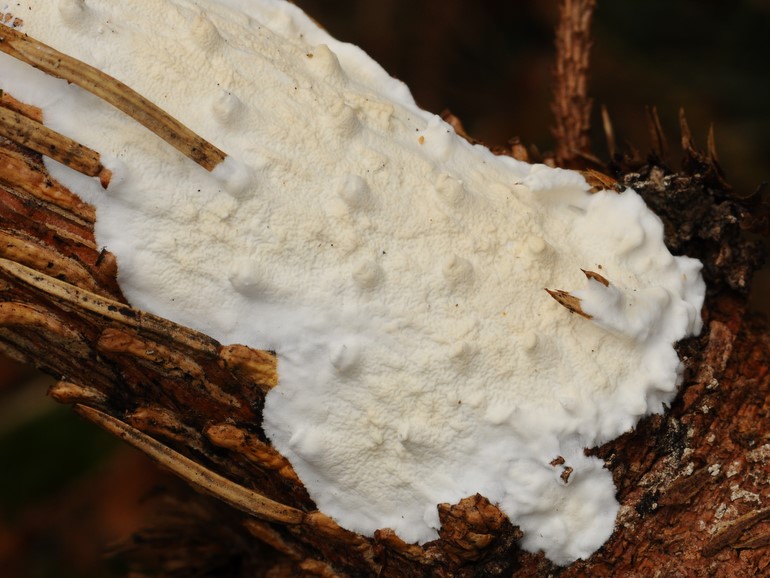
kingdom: Fungi
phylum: Basidiomycota
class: Agaricomycetes
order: Polyporales
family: Irpicaceae
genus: Byssomerulius
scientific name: Byssomerulius corium
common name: læder-åresvamp
